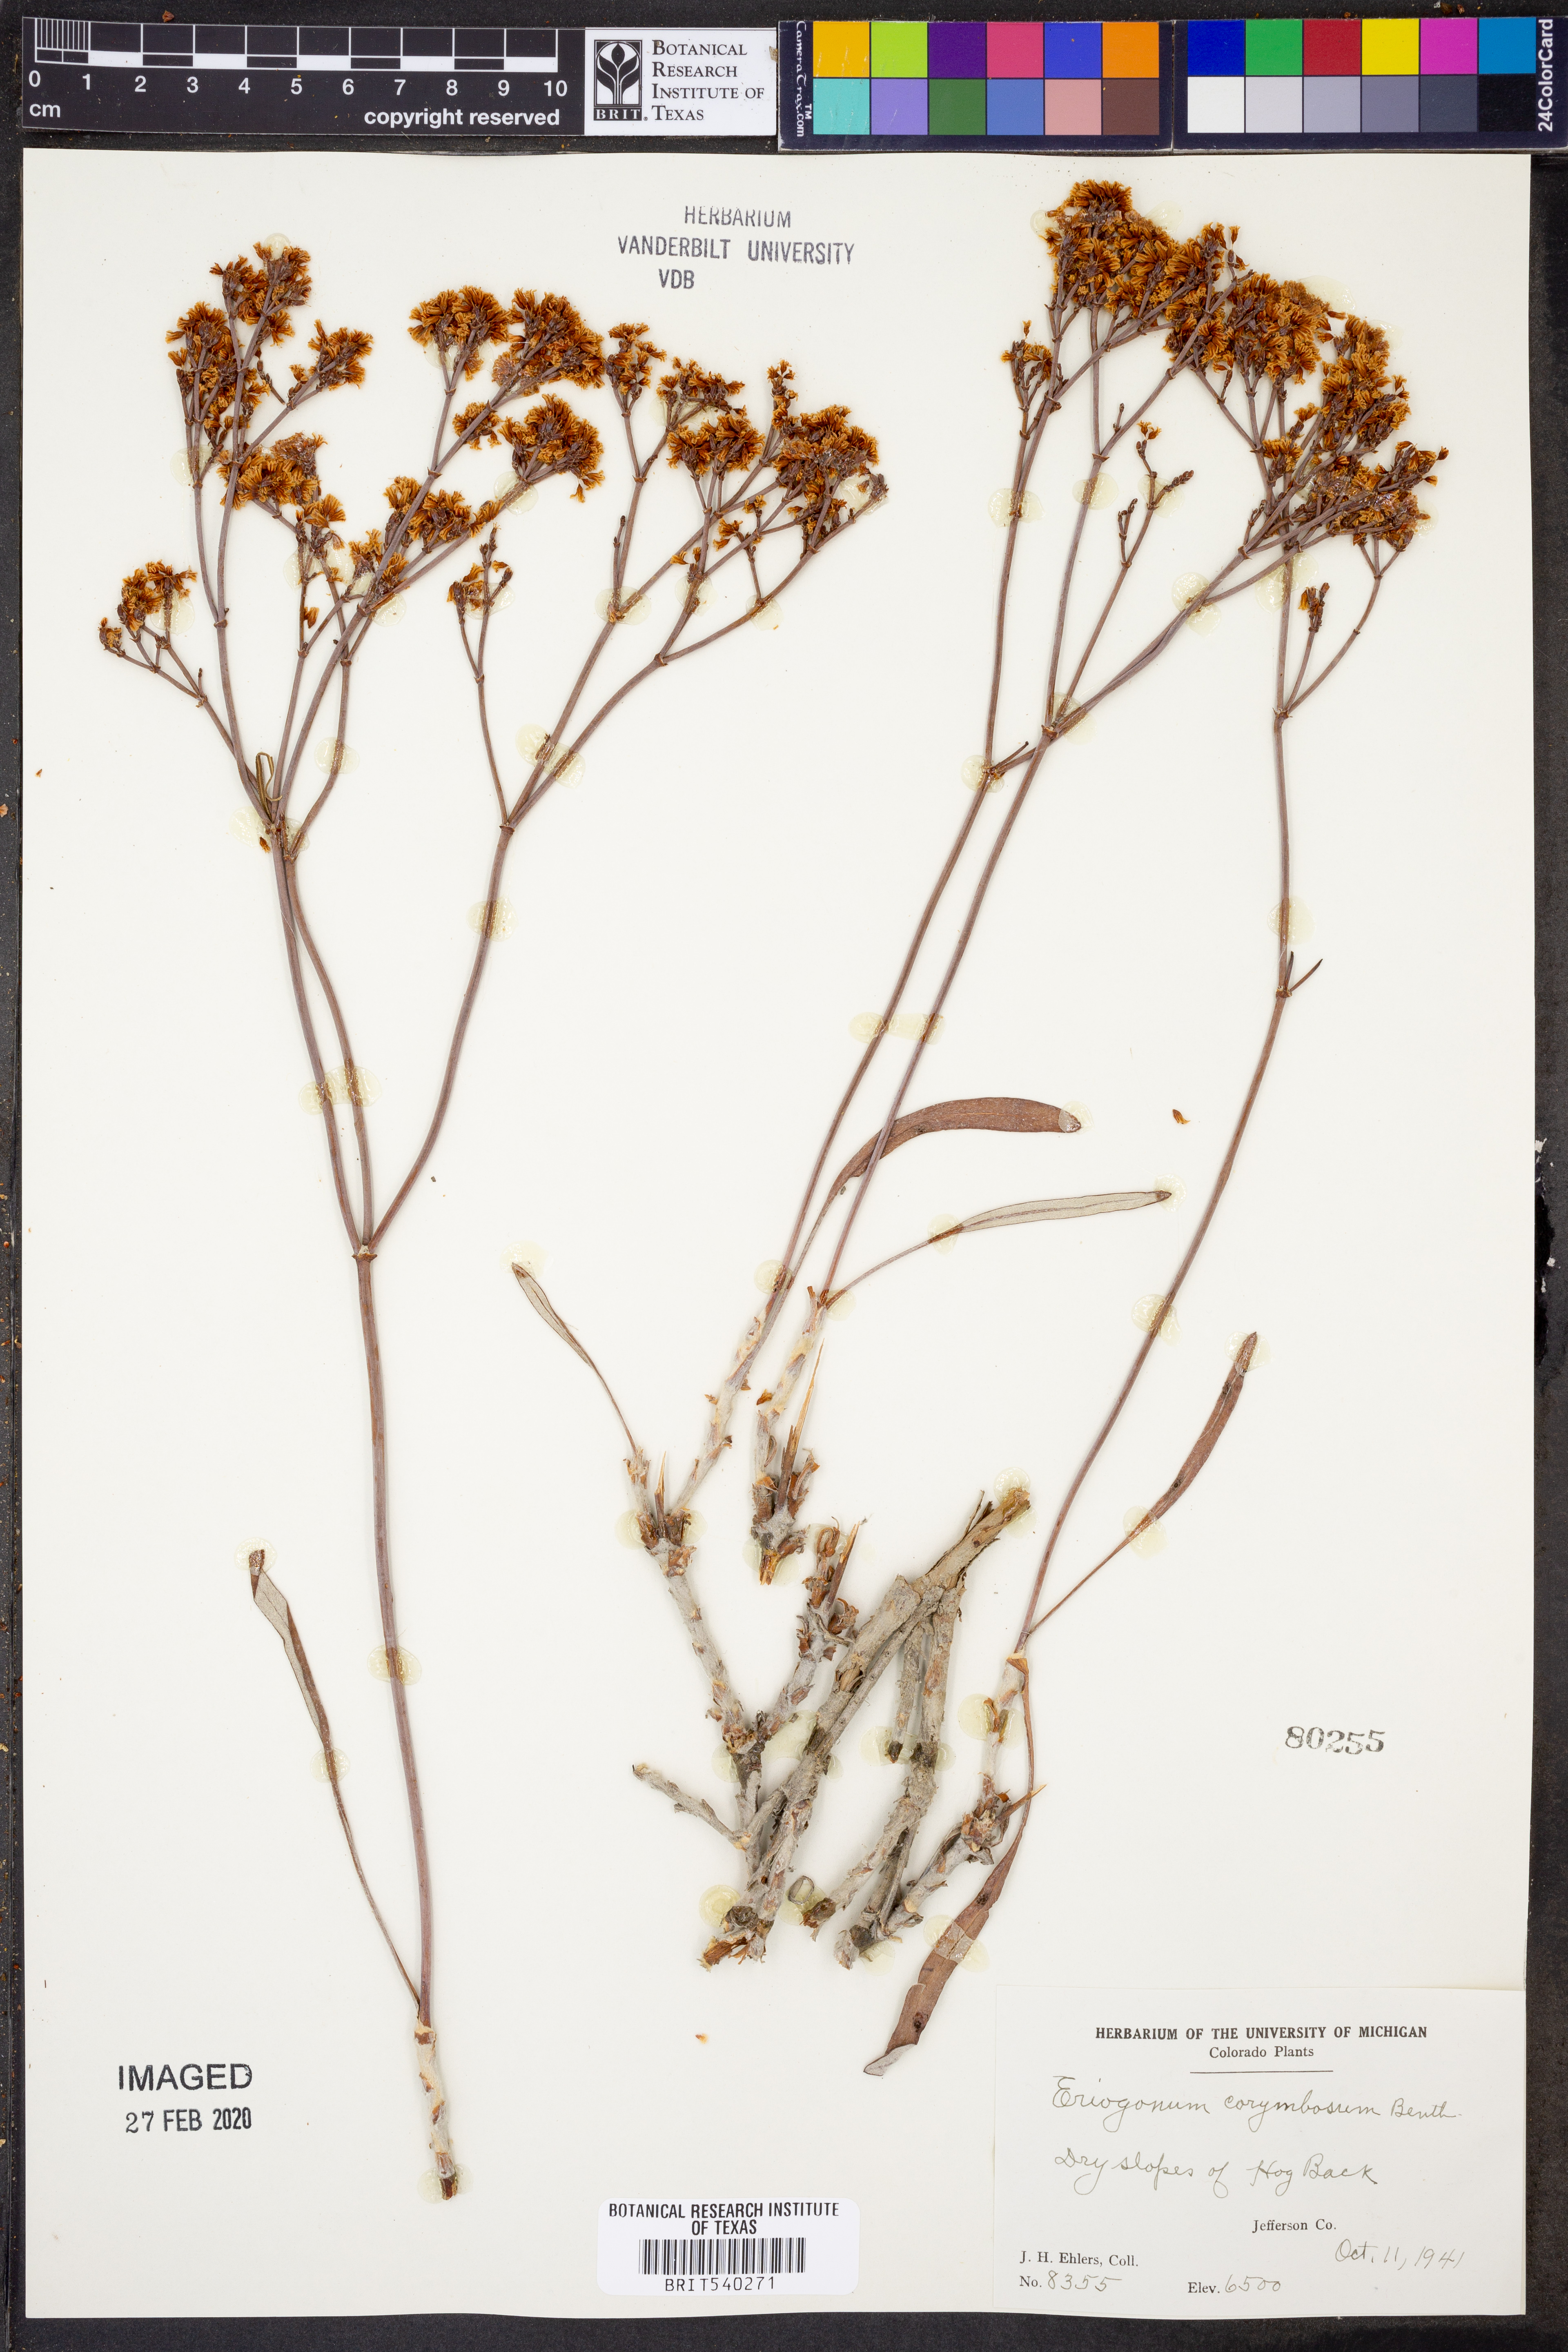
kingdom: Plantae
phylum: Tracheophyta
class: Magnoliopsida
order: Caryophyllales
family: Polygonaceae
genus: Eriogonum
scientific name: Eriogonum corymbosum
